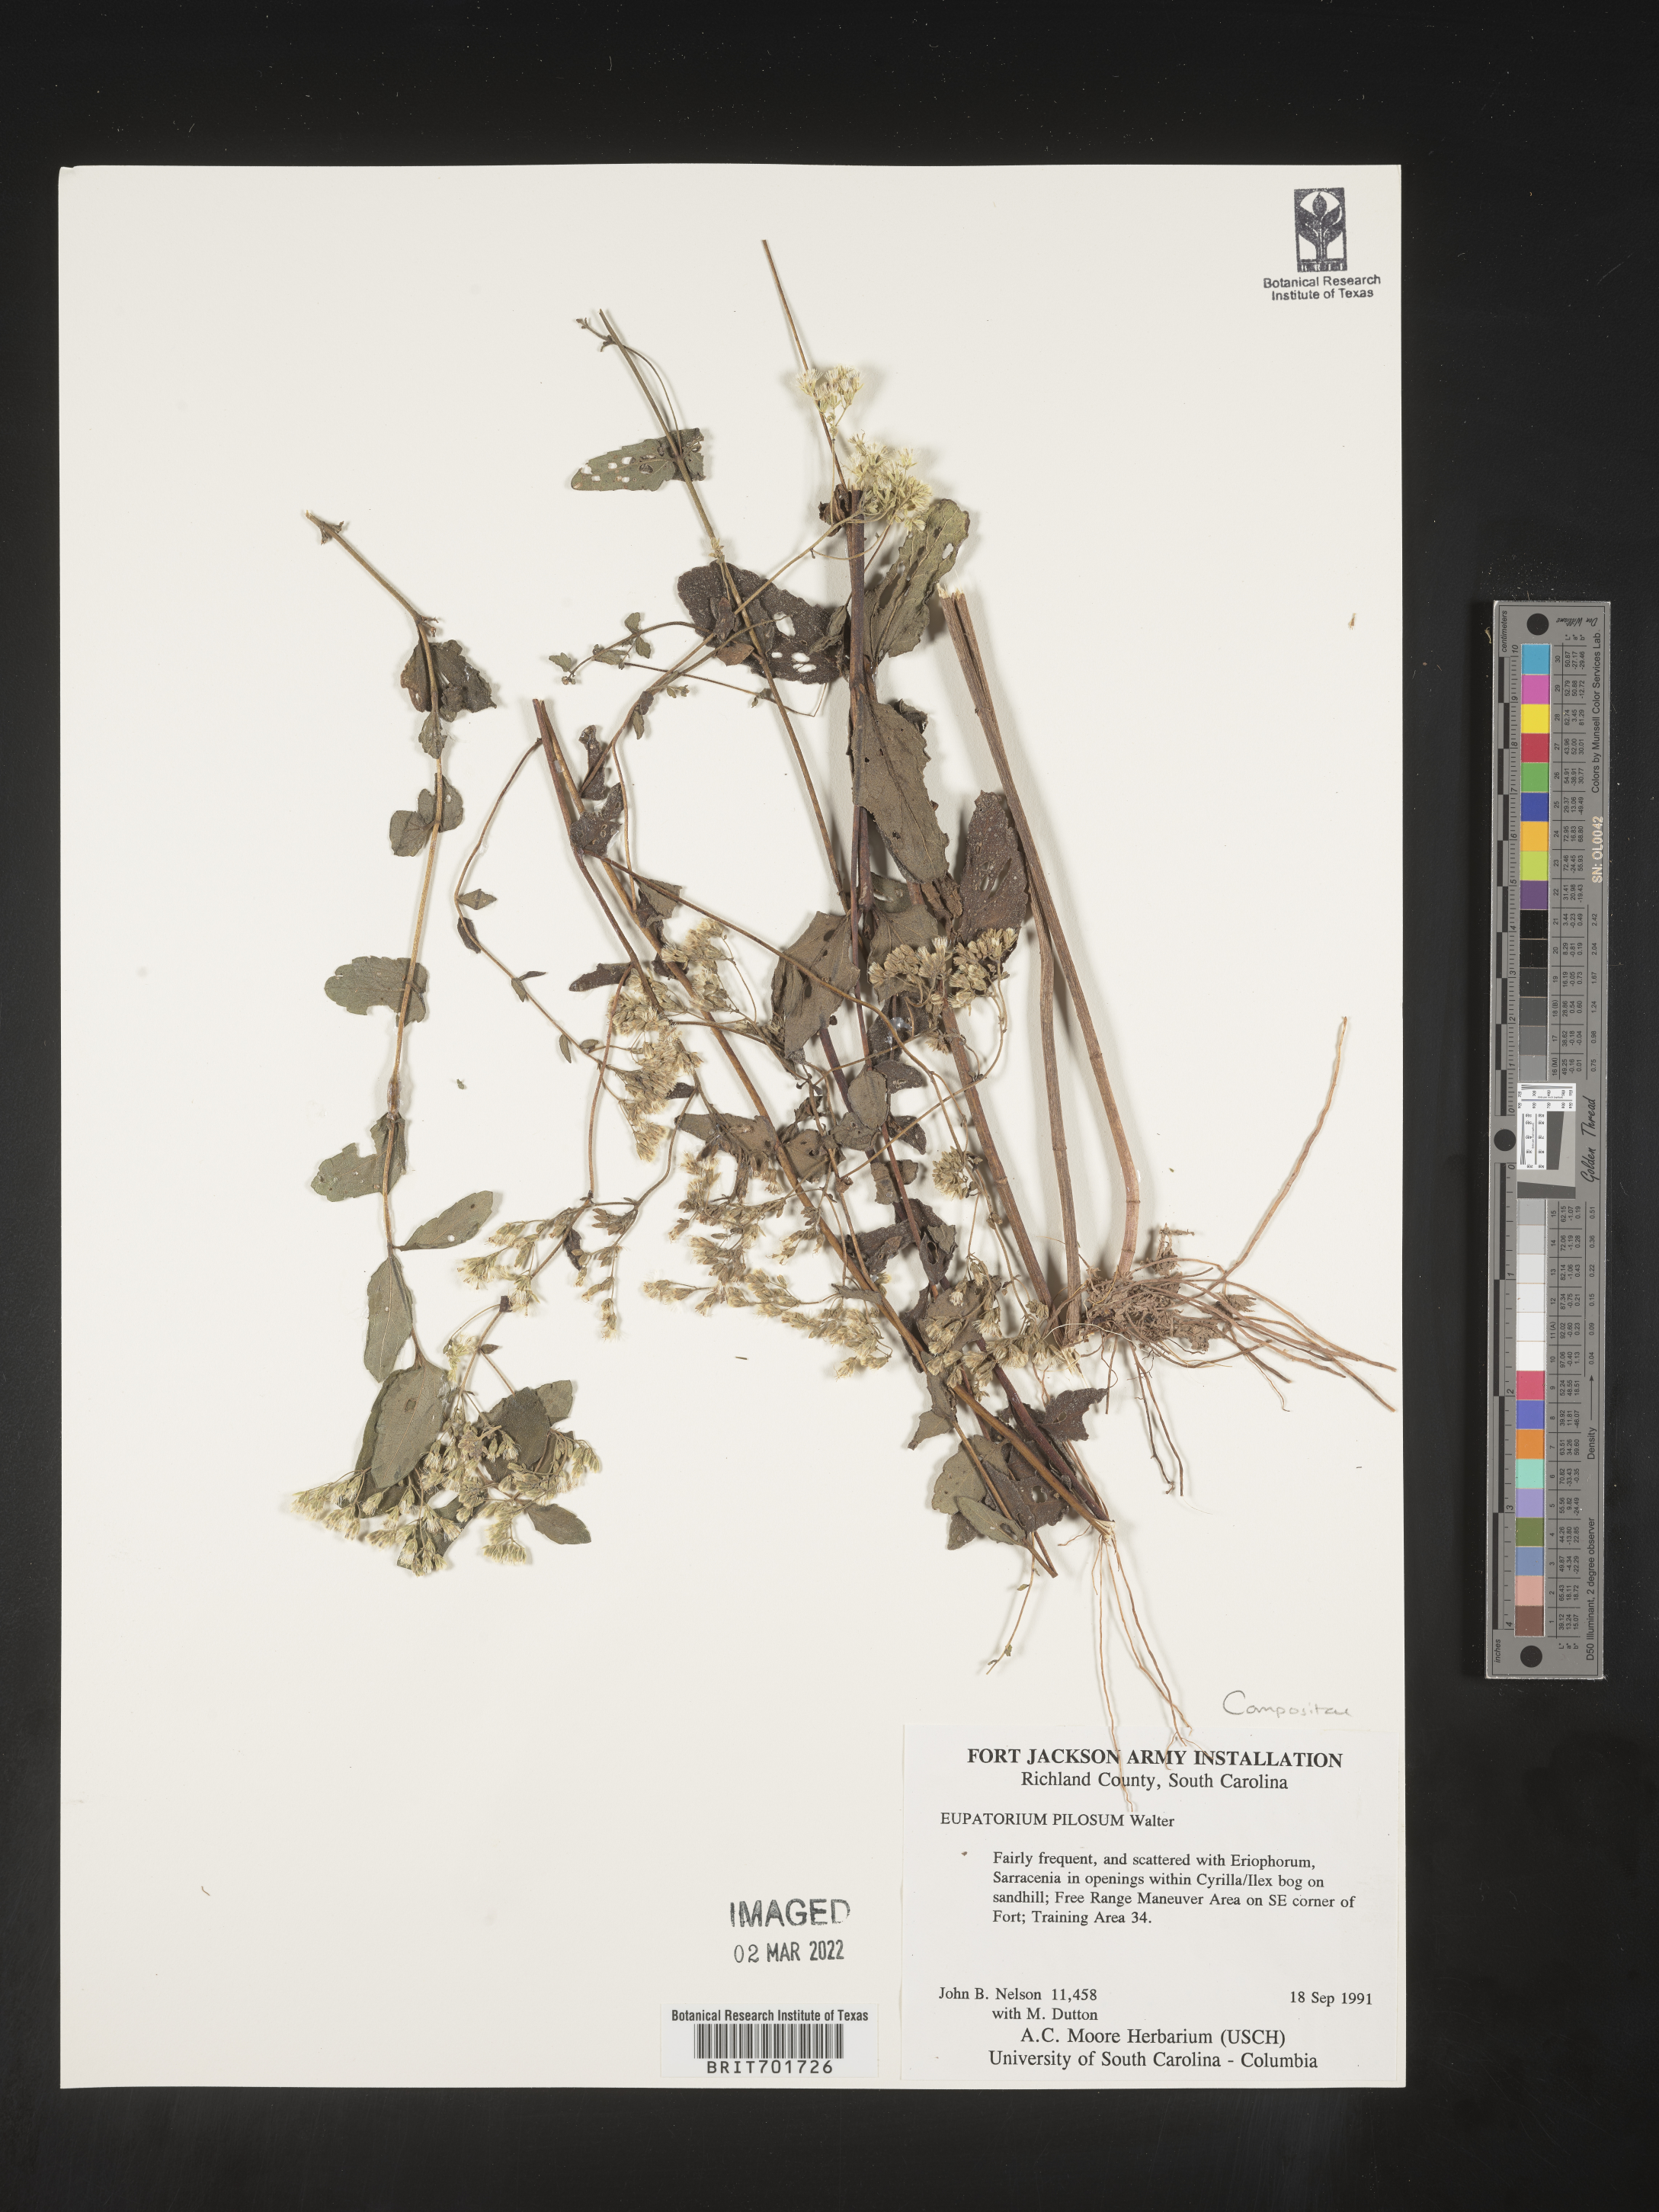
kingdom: Plantae
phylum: Tracheophyta
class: Magnoliopsida
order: Asterales
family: Asteraceae
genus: Eupatorium
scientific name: Eupatorium pilosum
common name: Rough boneset
